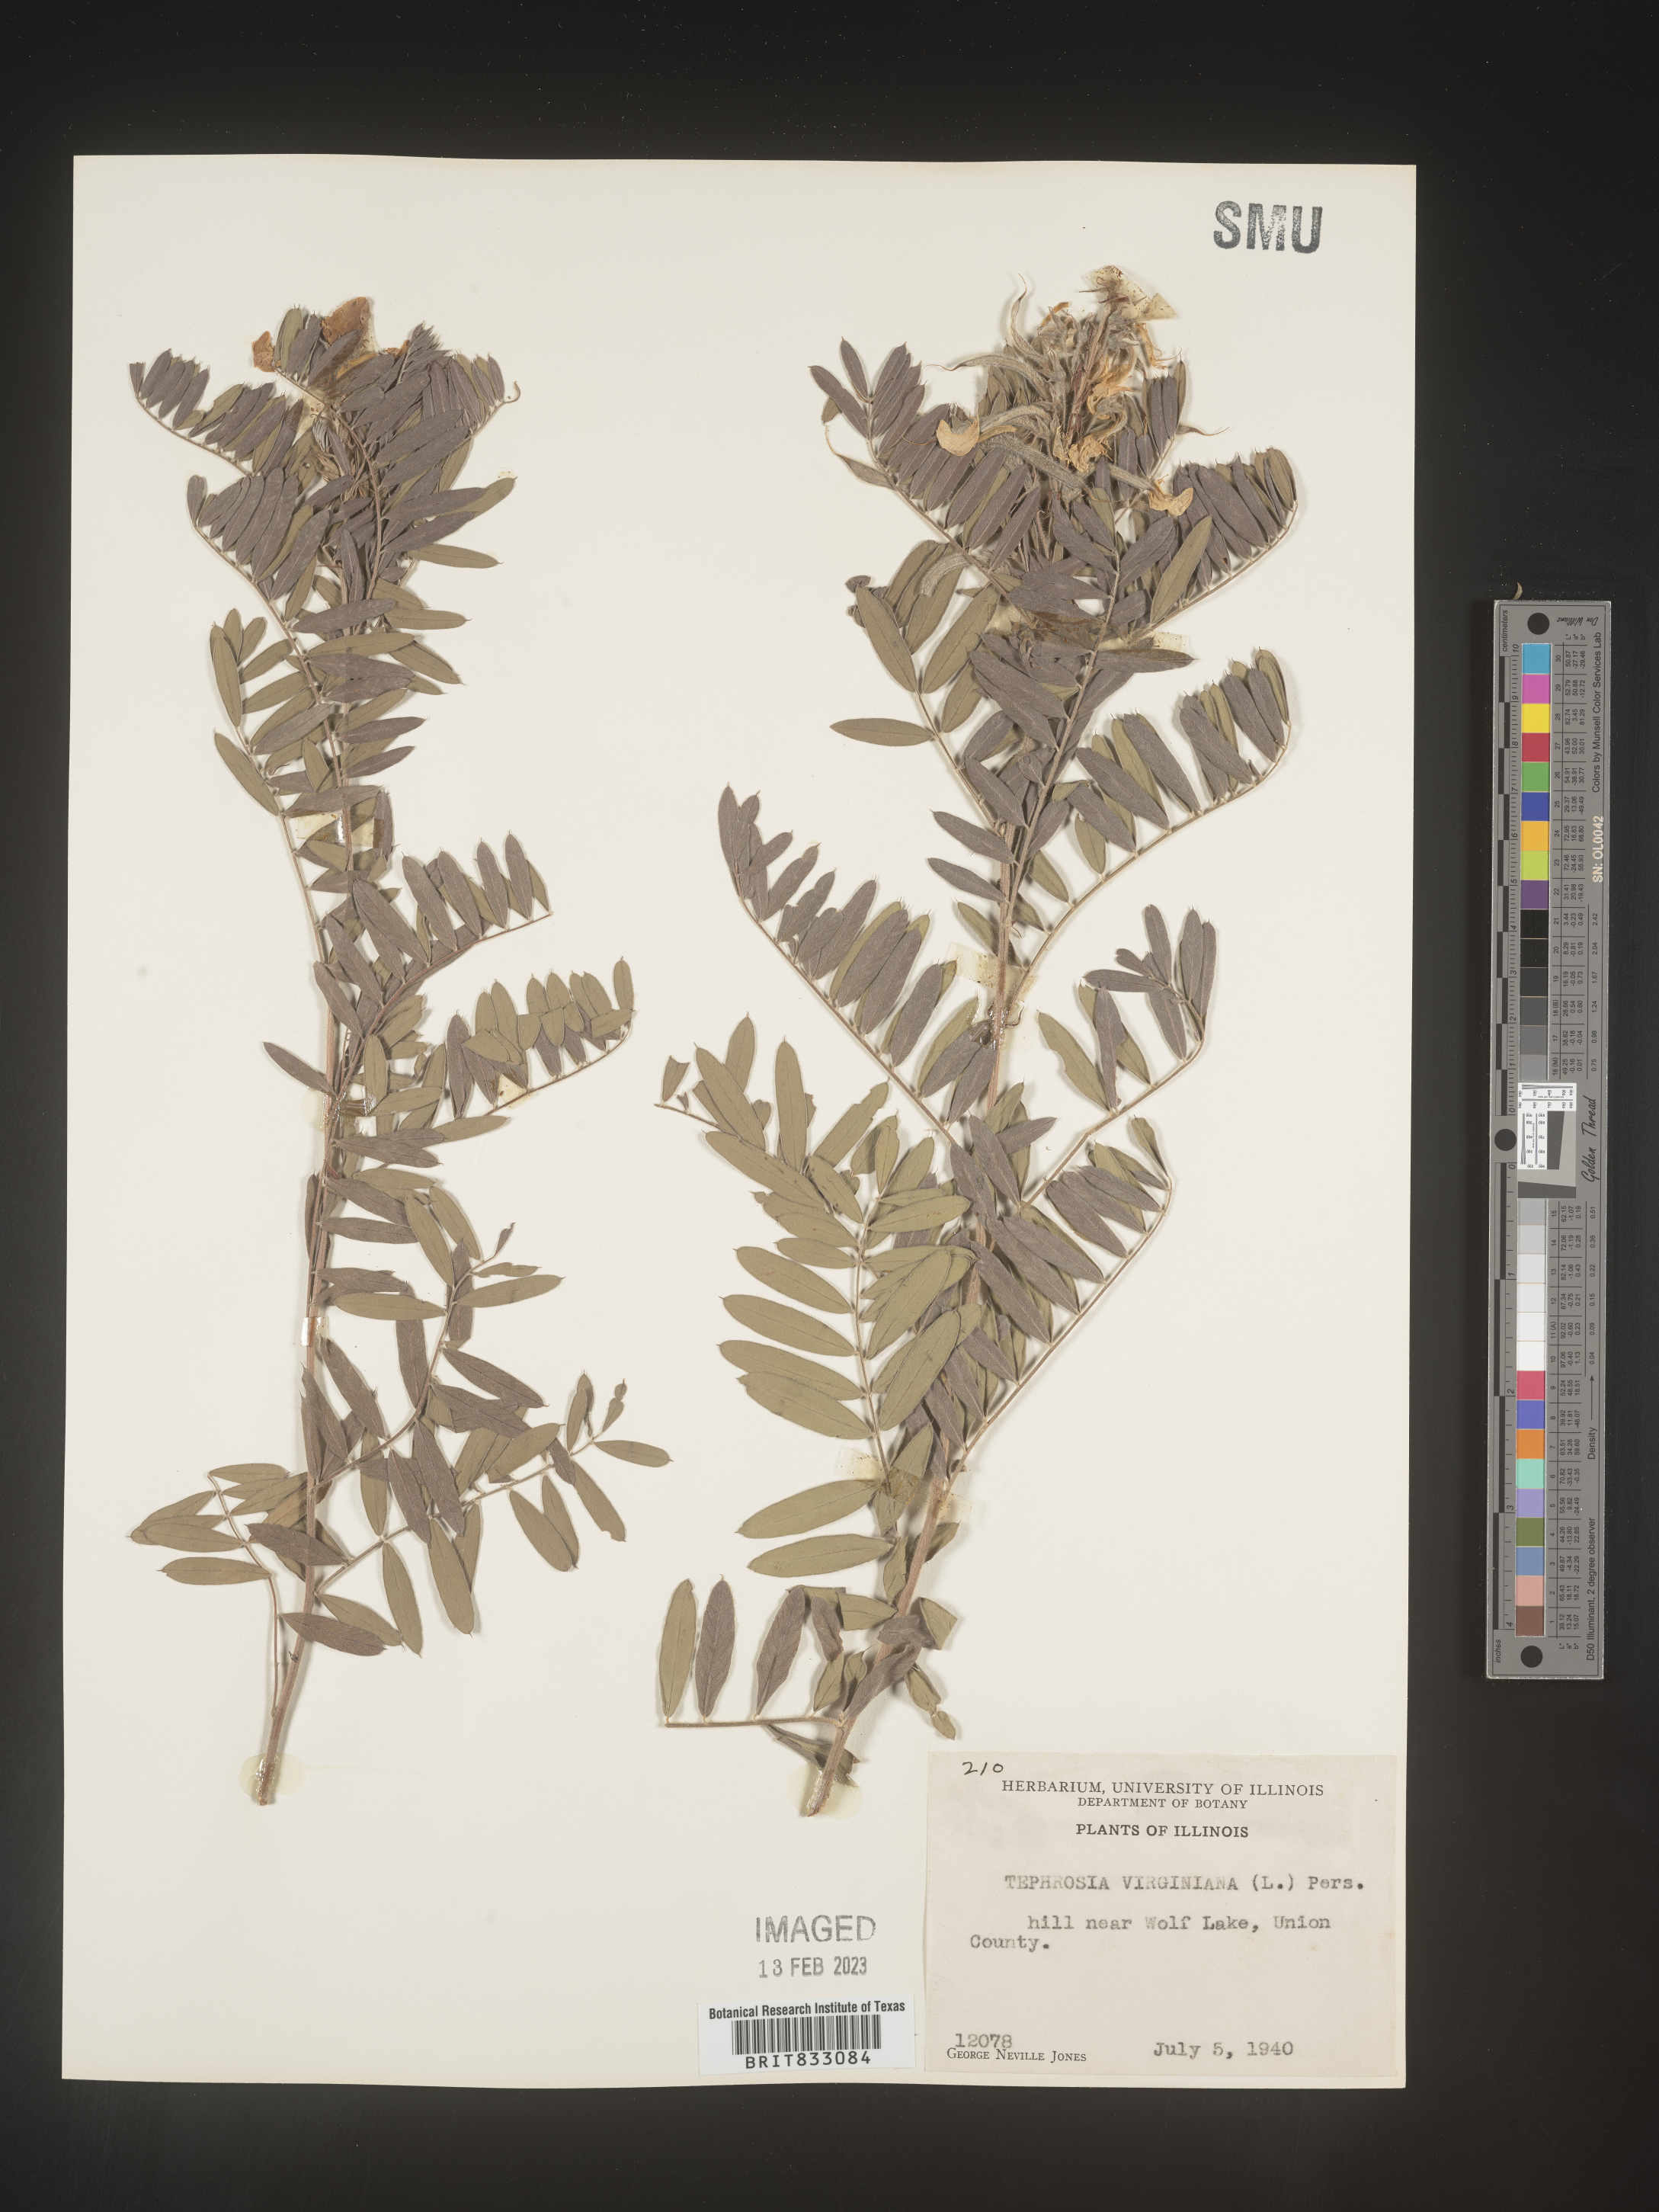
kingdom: Plantae
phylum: Tracheophyta
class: Magnoliopsida
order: Fabales
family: Fabaceae
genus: Tephrosia
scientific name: Tephrosia virginiana
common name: Rabbit-pea
